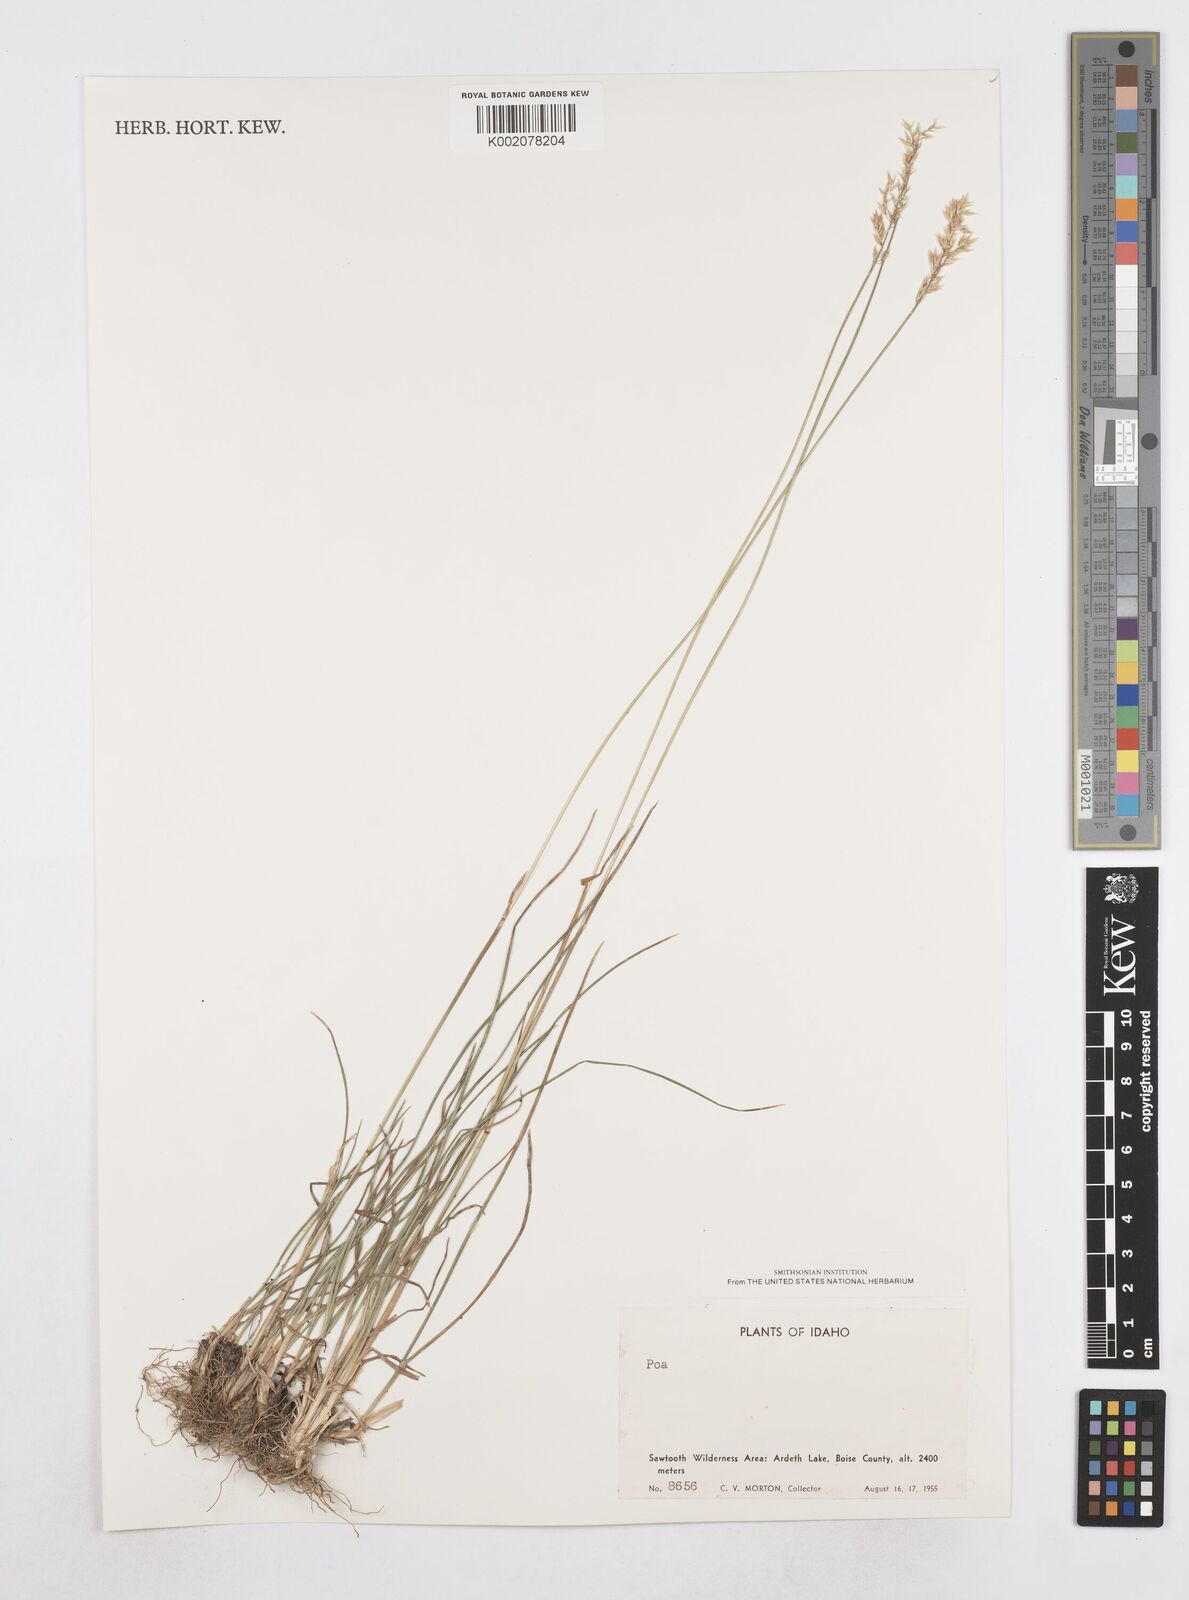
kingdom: Plantae
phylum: Tracheophyta
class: Liliopsida
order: Poales
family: Poaceae
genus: Poa
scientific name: Poa
